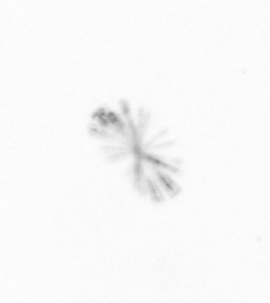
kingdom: Chromista
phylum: Ochrophyta
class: Bacillariophyceae
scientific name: Bacillariophyceae
